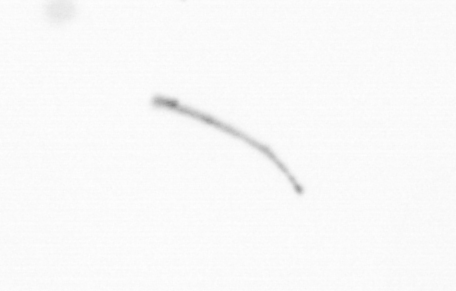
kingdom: Chromista
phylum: Ochrophyta
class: Bacillariophyceae
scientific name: Bacillariophyceae
